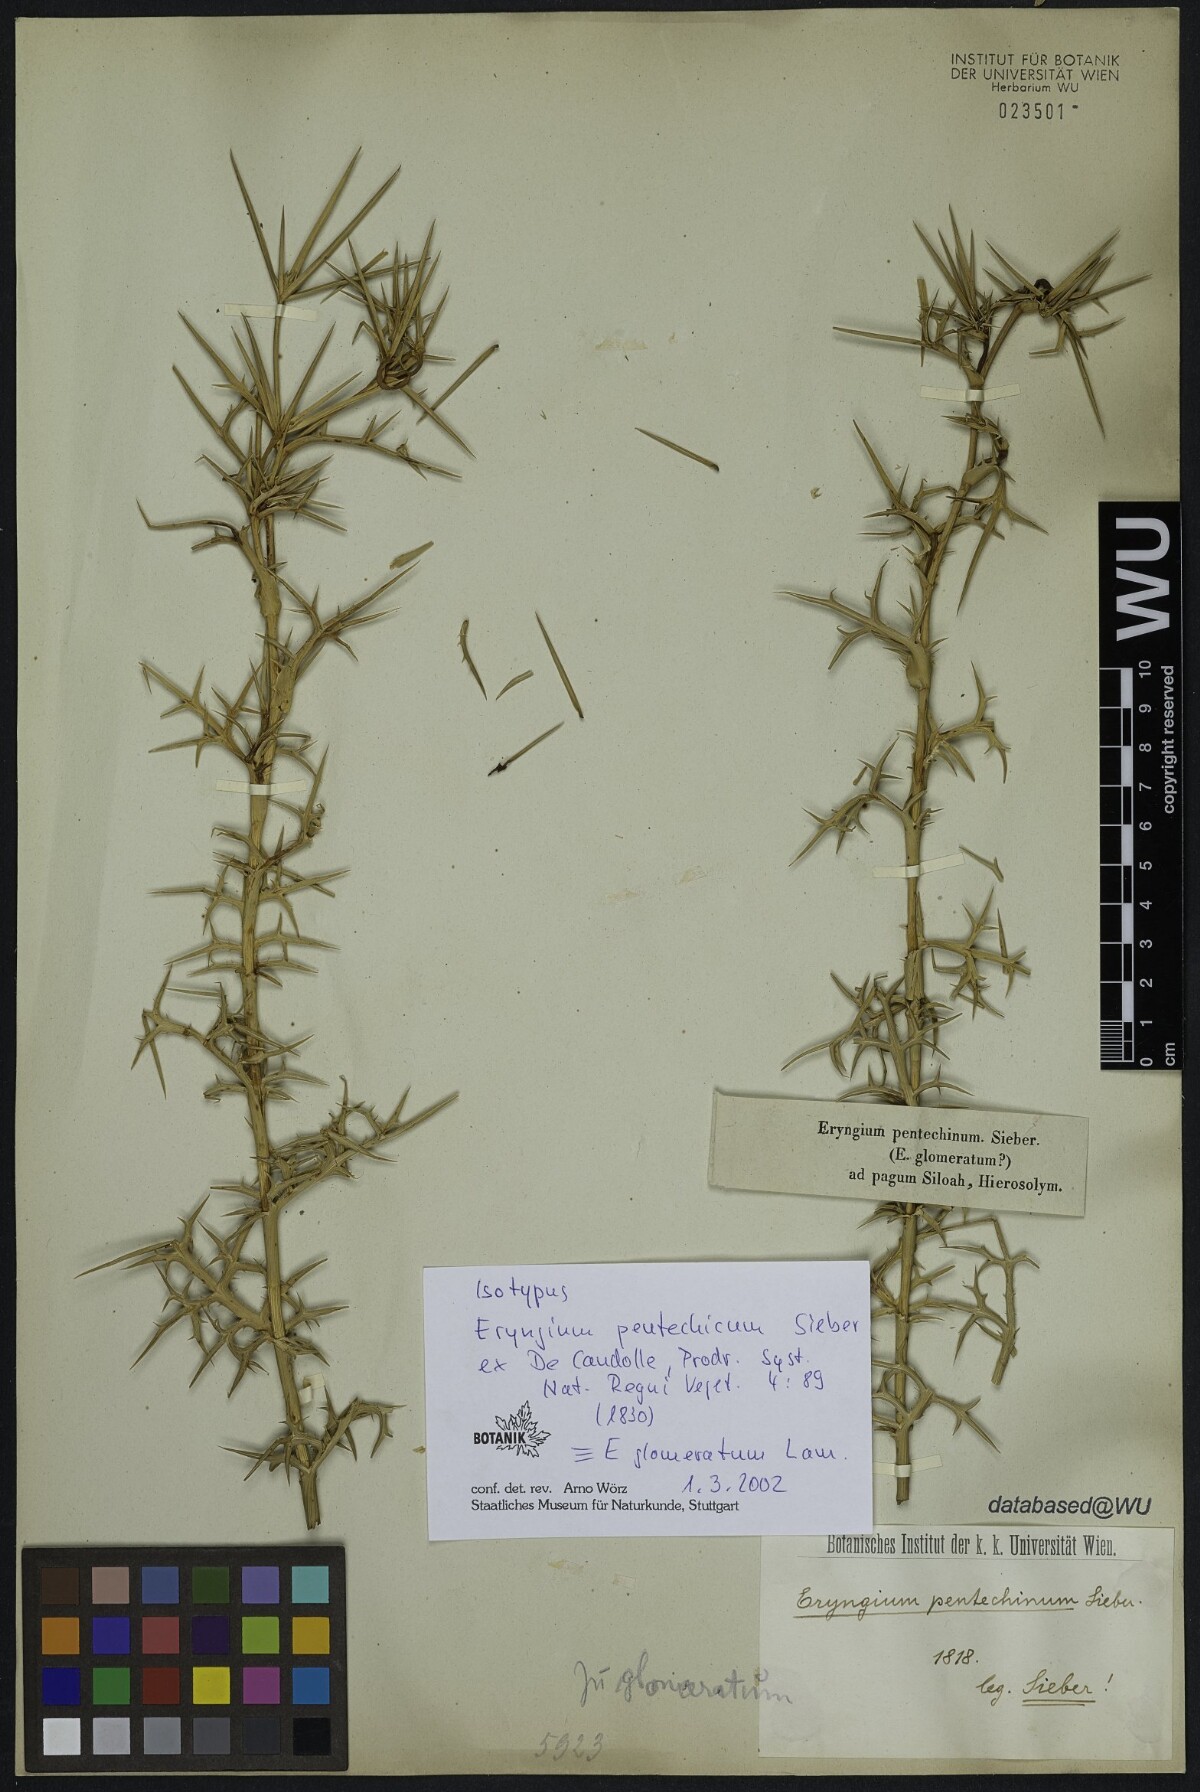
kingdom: Plantae
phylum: Tracheophyta
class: Magnoliopsida
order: Apiales
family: Apiaceae
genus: Eryngium
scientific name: Eryngium glomeratum
